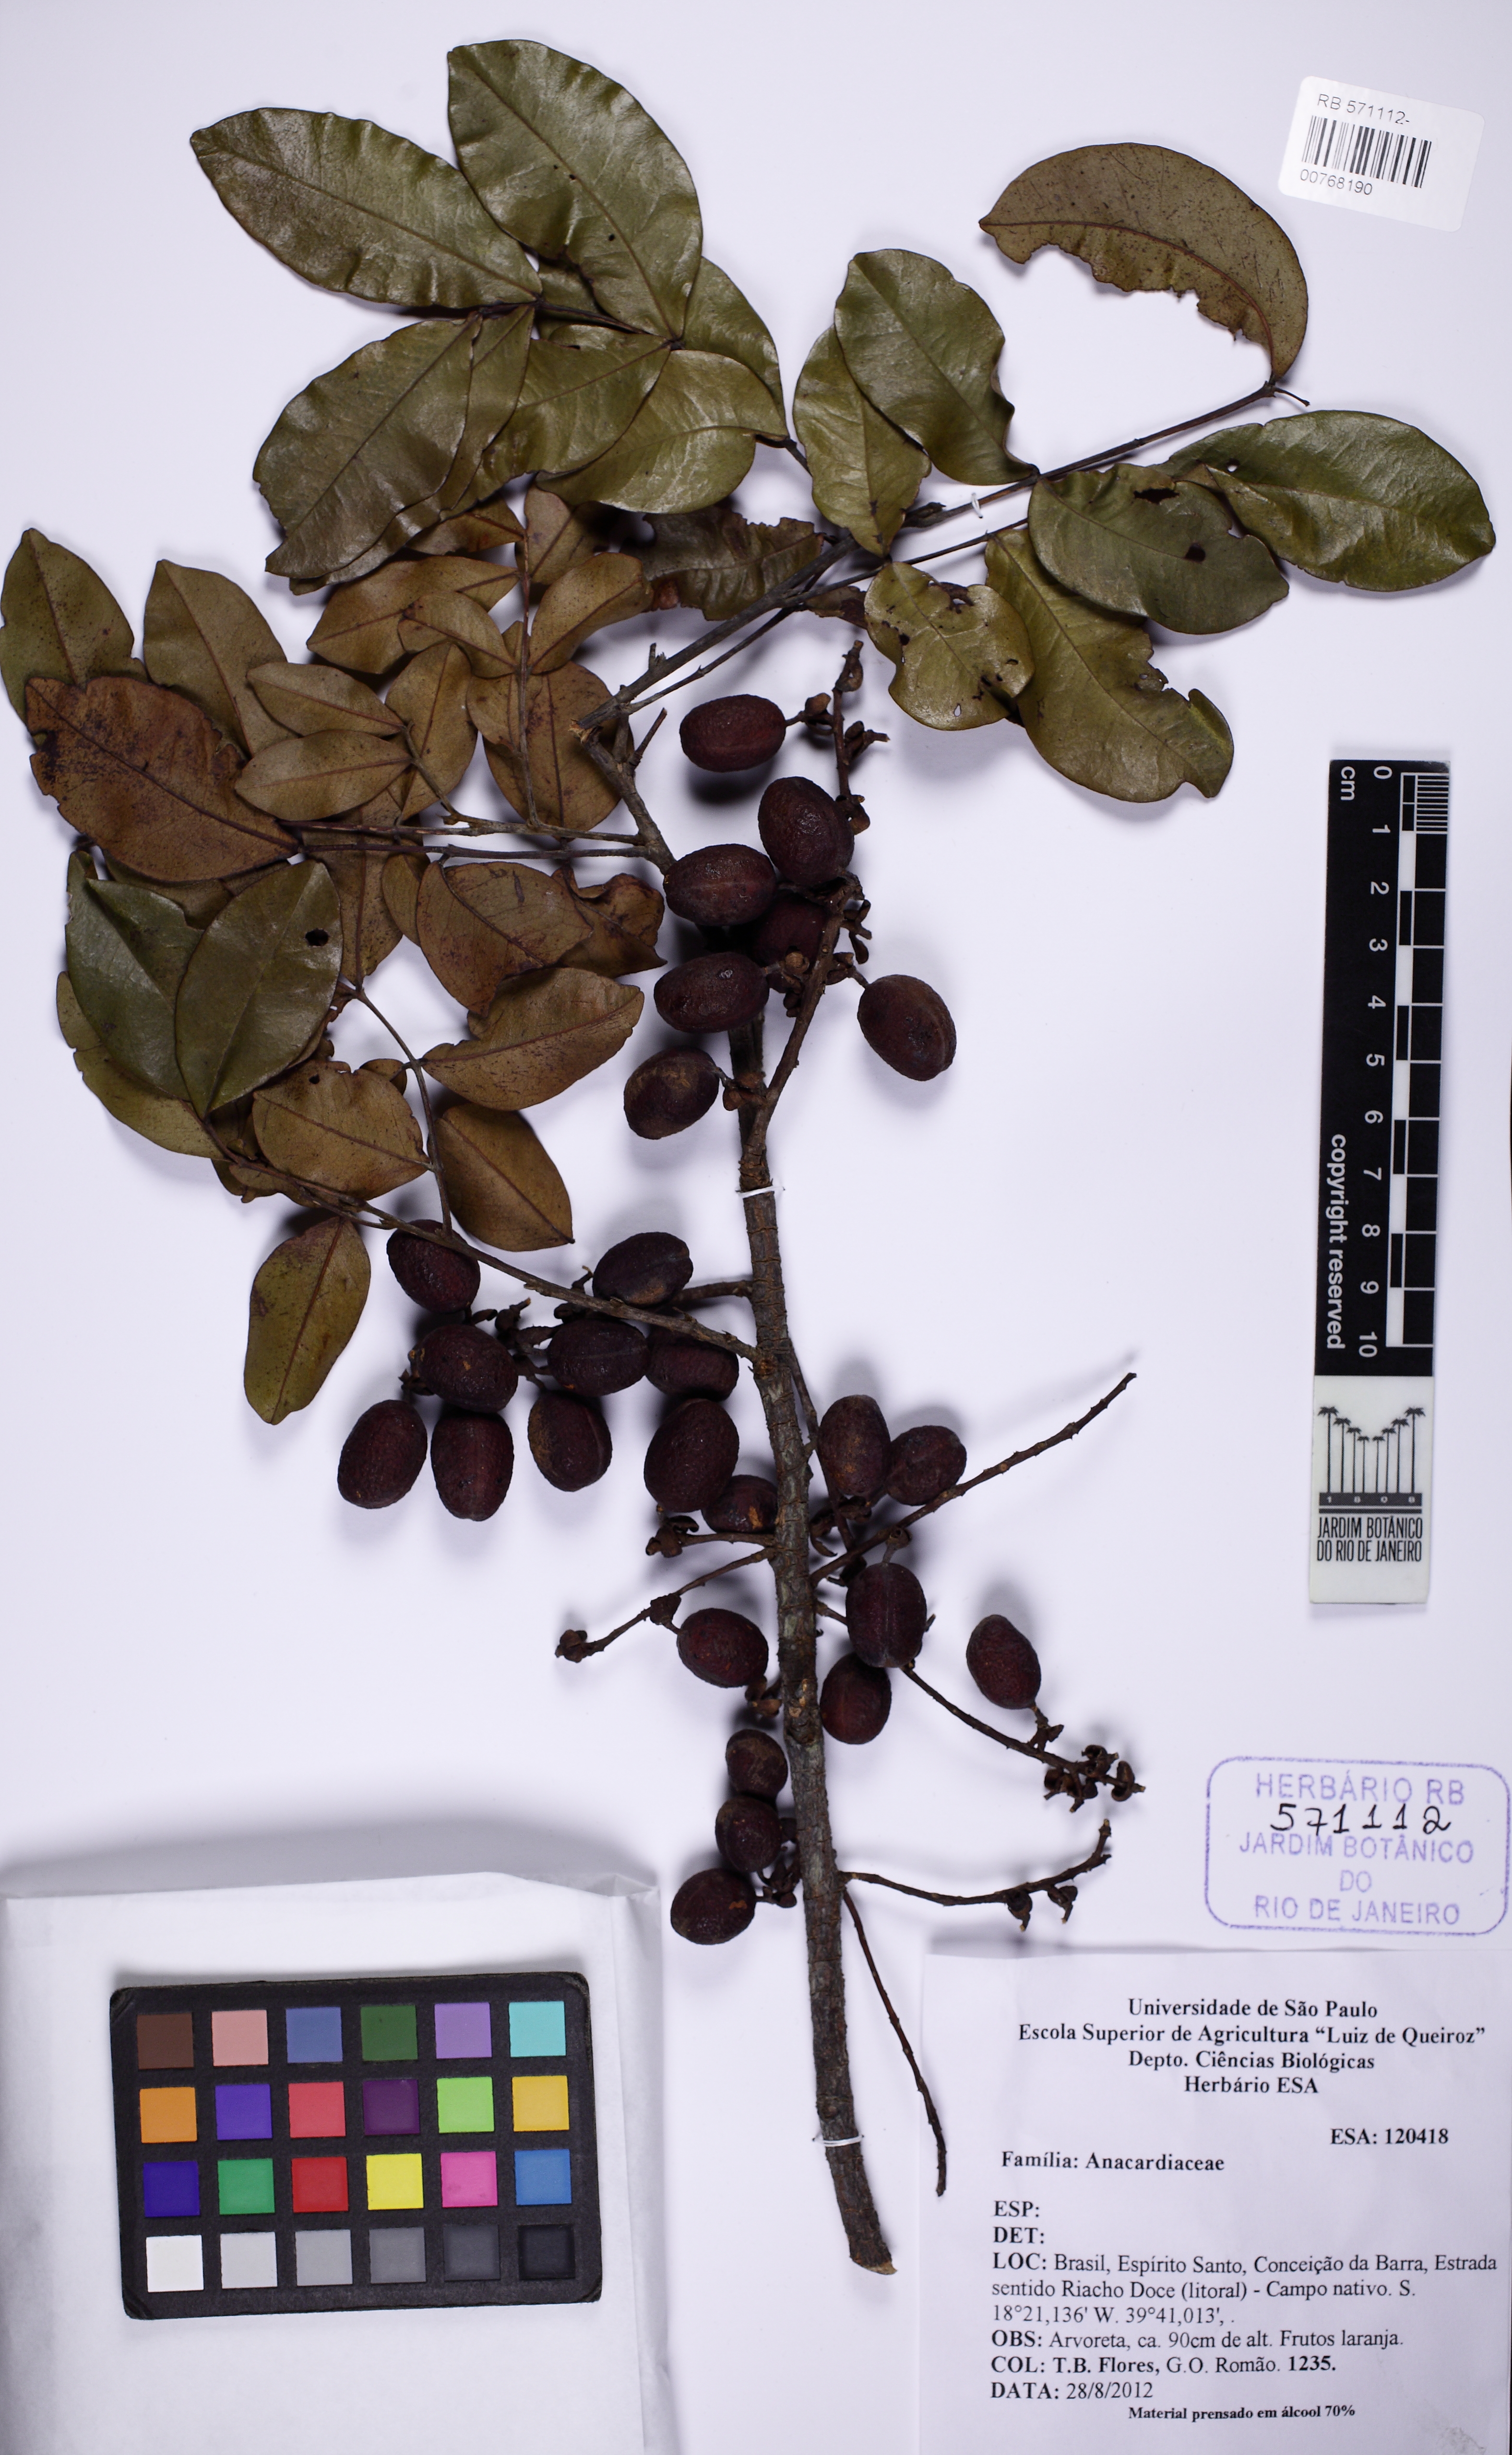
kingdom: Plantae
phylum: Tracheophyta
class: Magnoliopsida
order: Fabales
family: Fabaceae
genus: Swartzia
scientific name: Swartzia apetala
